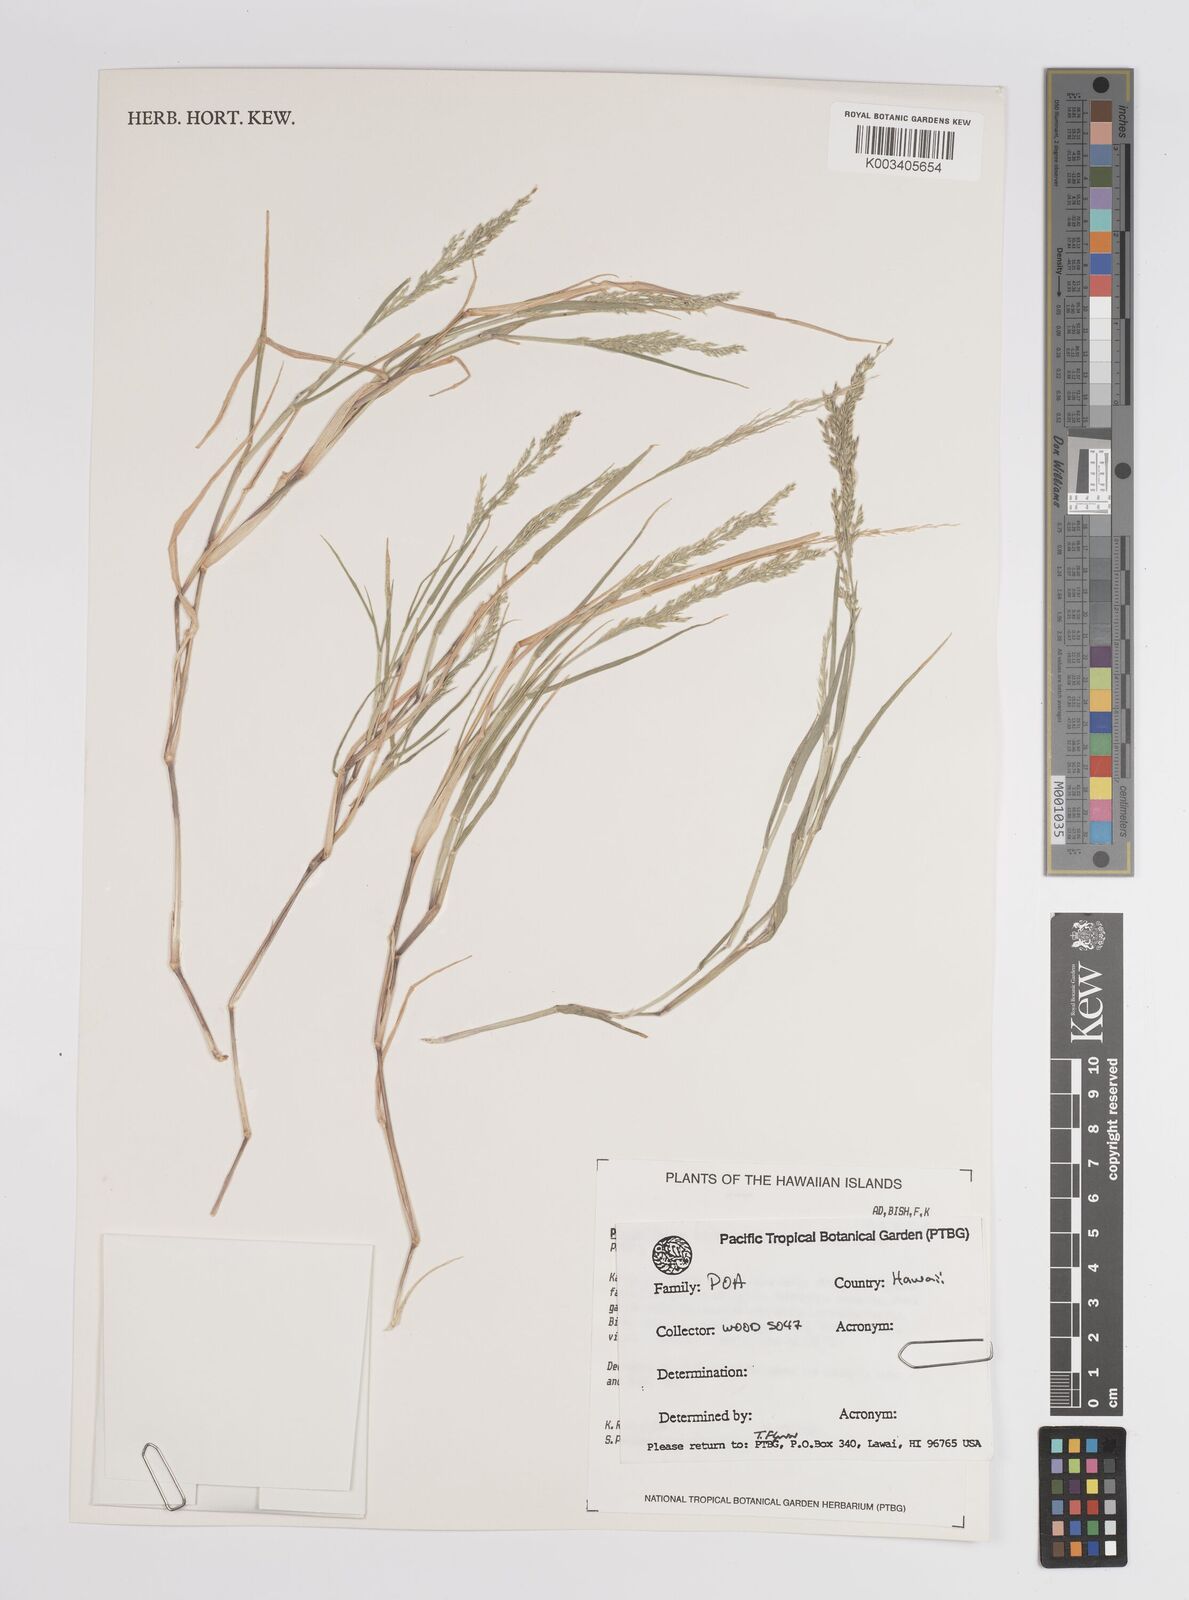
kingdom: Plantae
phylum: Tracheophyta
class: Liliopsida
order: Poales
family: Poaceae
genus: Panicum
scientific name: Panicum fauriei
